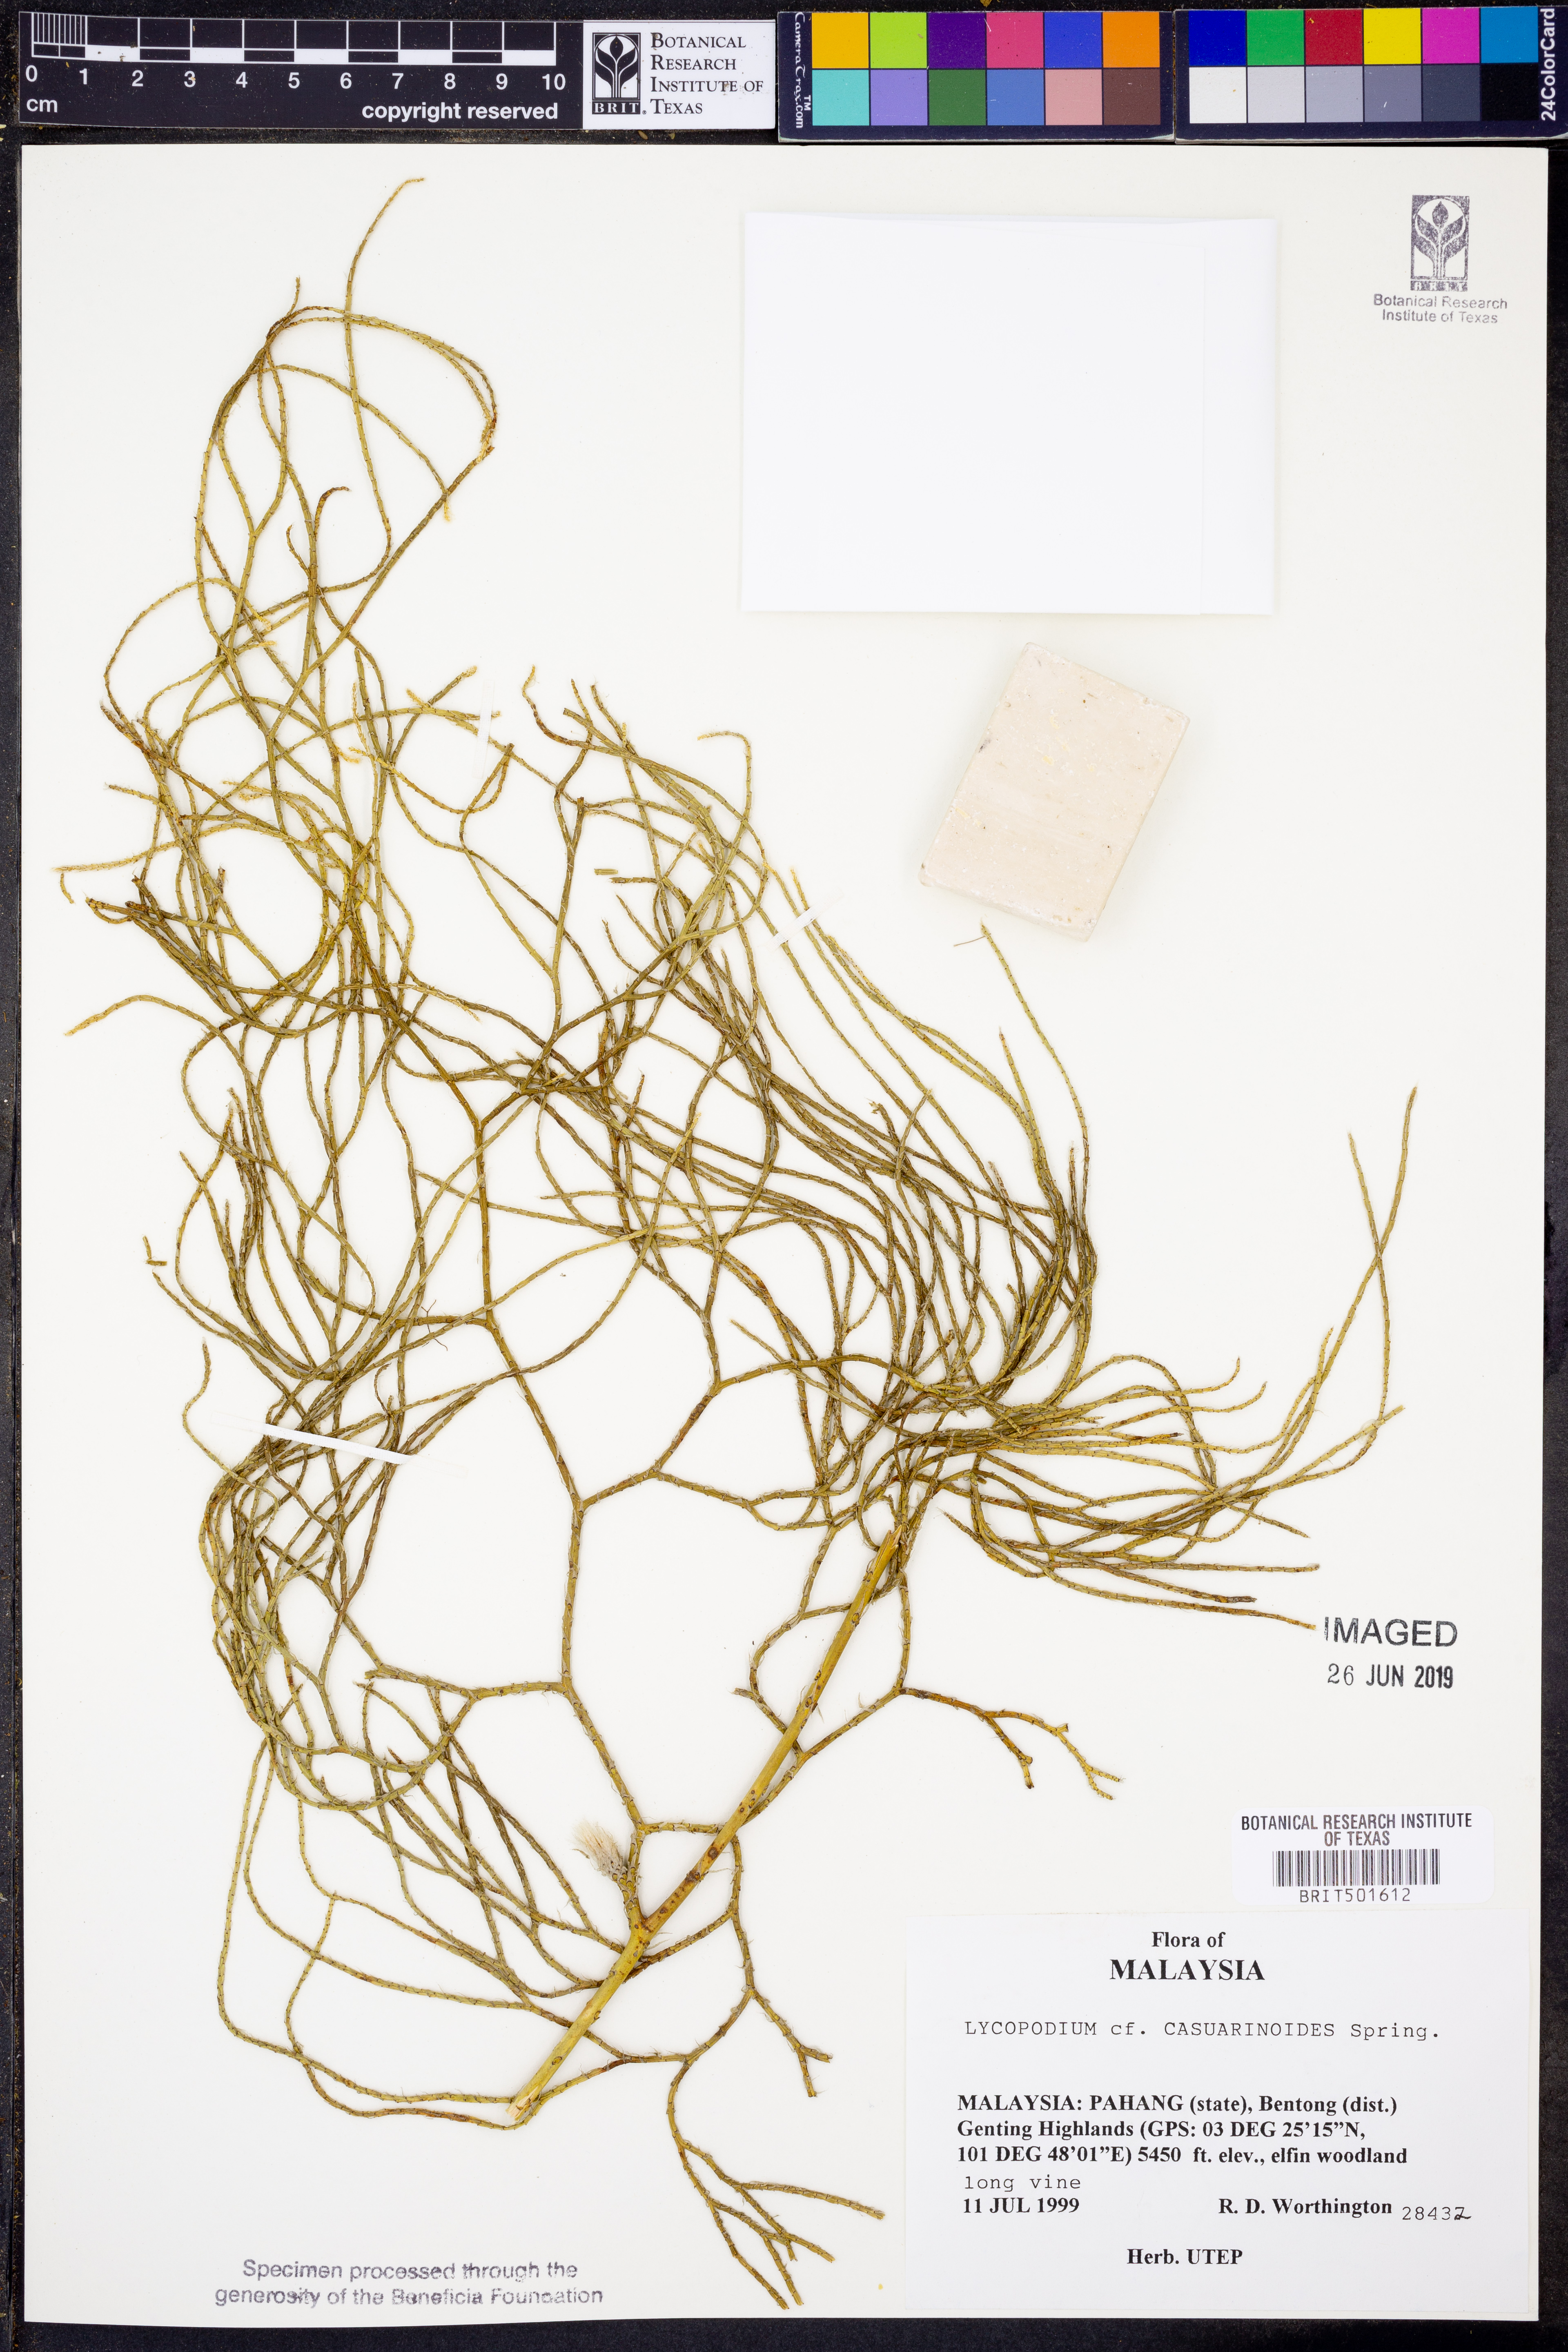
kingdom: Plantae
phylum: Tracheophyta
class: Lycopodiopsida
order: Lycopodiales
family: Lycopodiaceae
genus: Lycopodiastrum
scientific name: Lycopodiastrum casuarinoides
